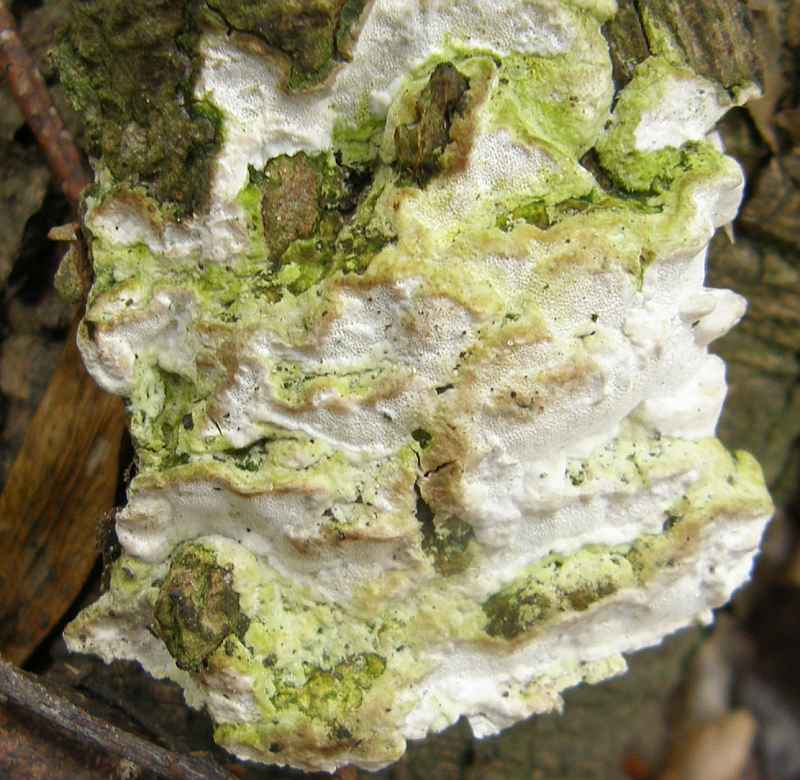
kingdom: Fungi
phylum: Basidiomycota
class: Agaricomycetes
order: Hymenochaetales
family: Oxyporaceae
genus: Oxyporus
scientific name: Oxyporus populinus
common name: sammenvokset trylleporesvamp
